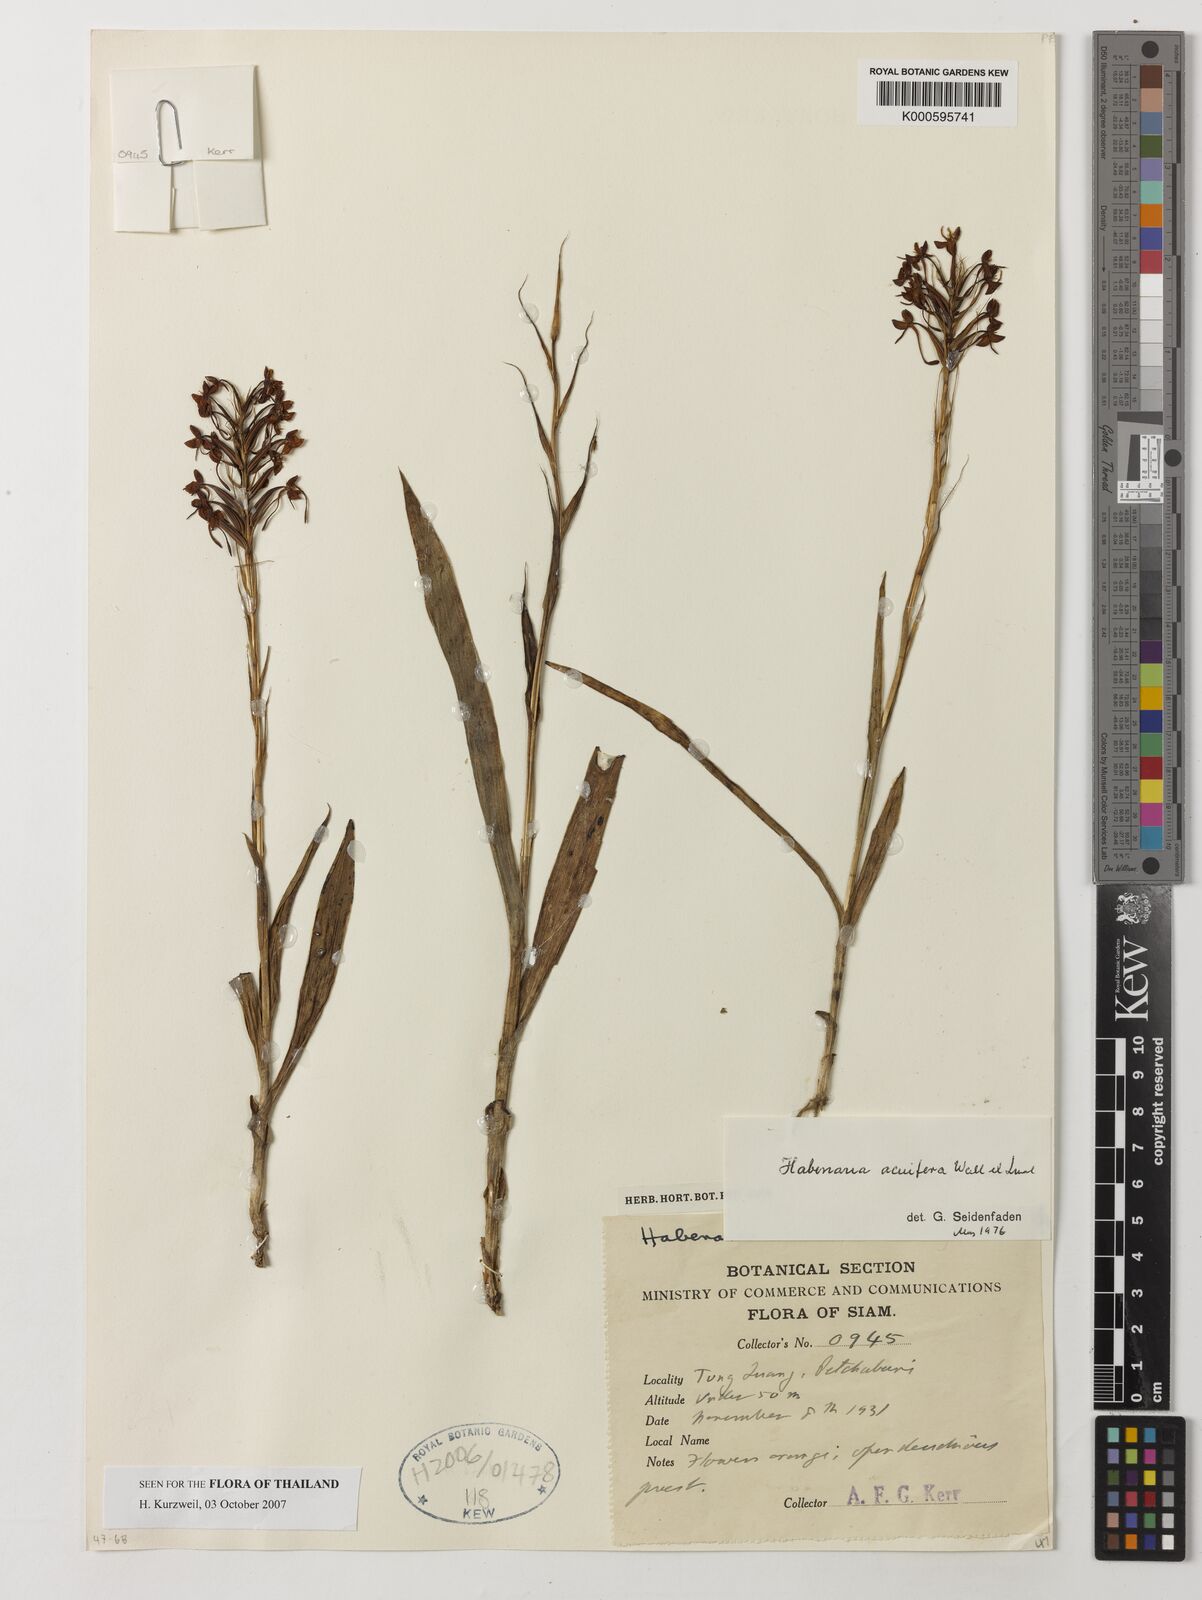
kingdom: Plantae
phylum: Tracheophyta
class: Liliopsida
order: Asparagales
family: Orchidaceae
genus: Habenaria
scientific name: Habenaria acuifera
